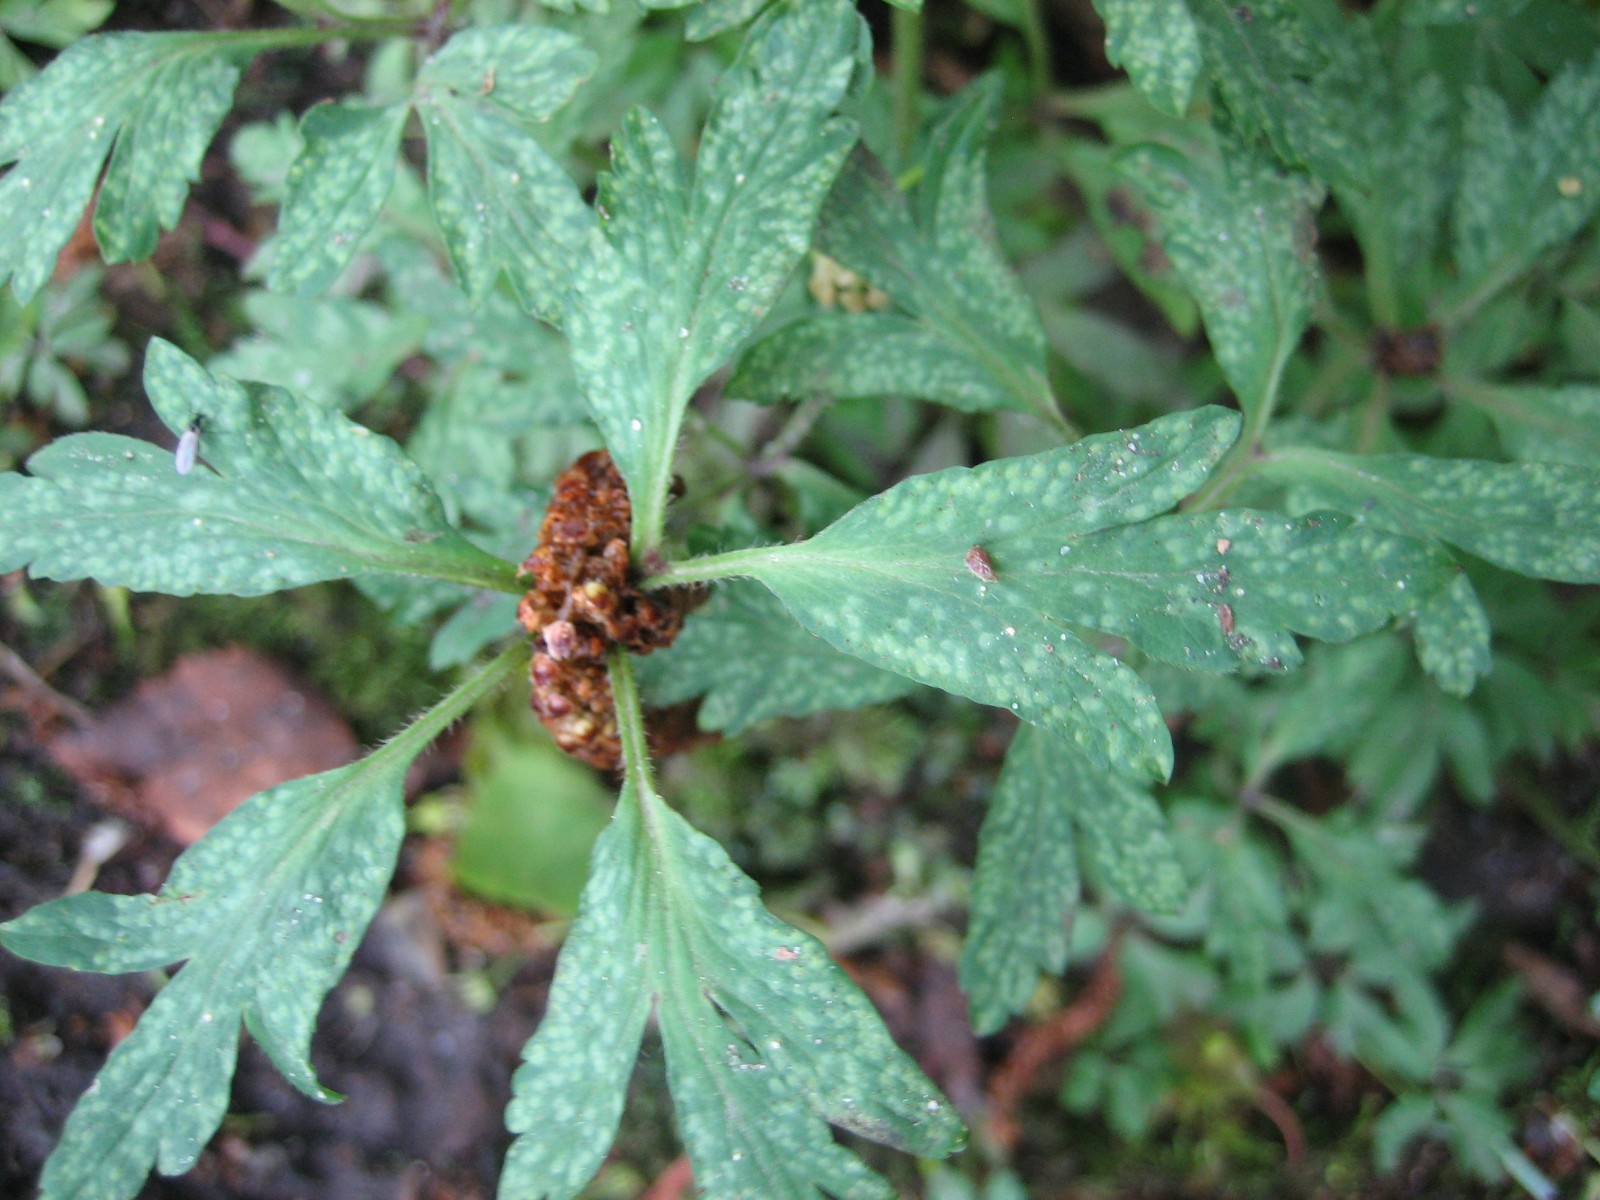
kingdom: Fungi
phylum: Basidiomycota
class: Pucciniomycetes
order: Pucciniales
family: Ochropsoraceae
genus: Ochropsora
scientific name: Ochropsora ariae
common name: anemone-okkerpletrust
